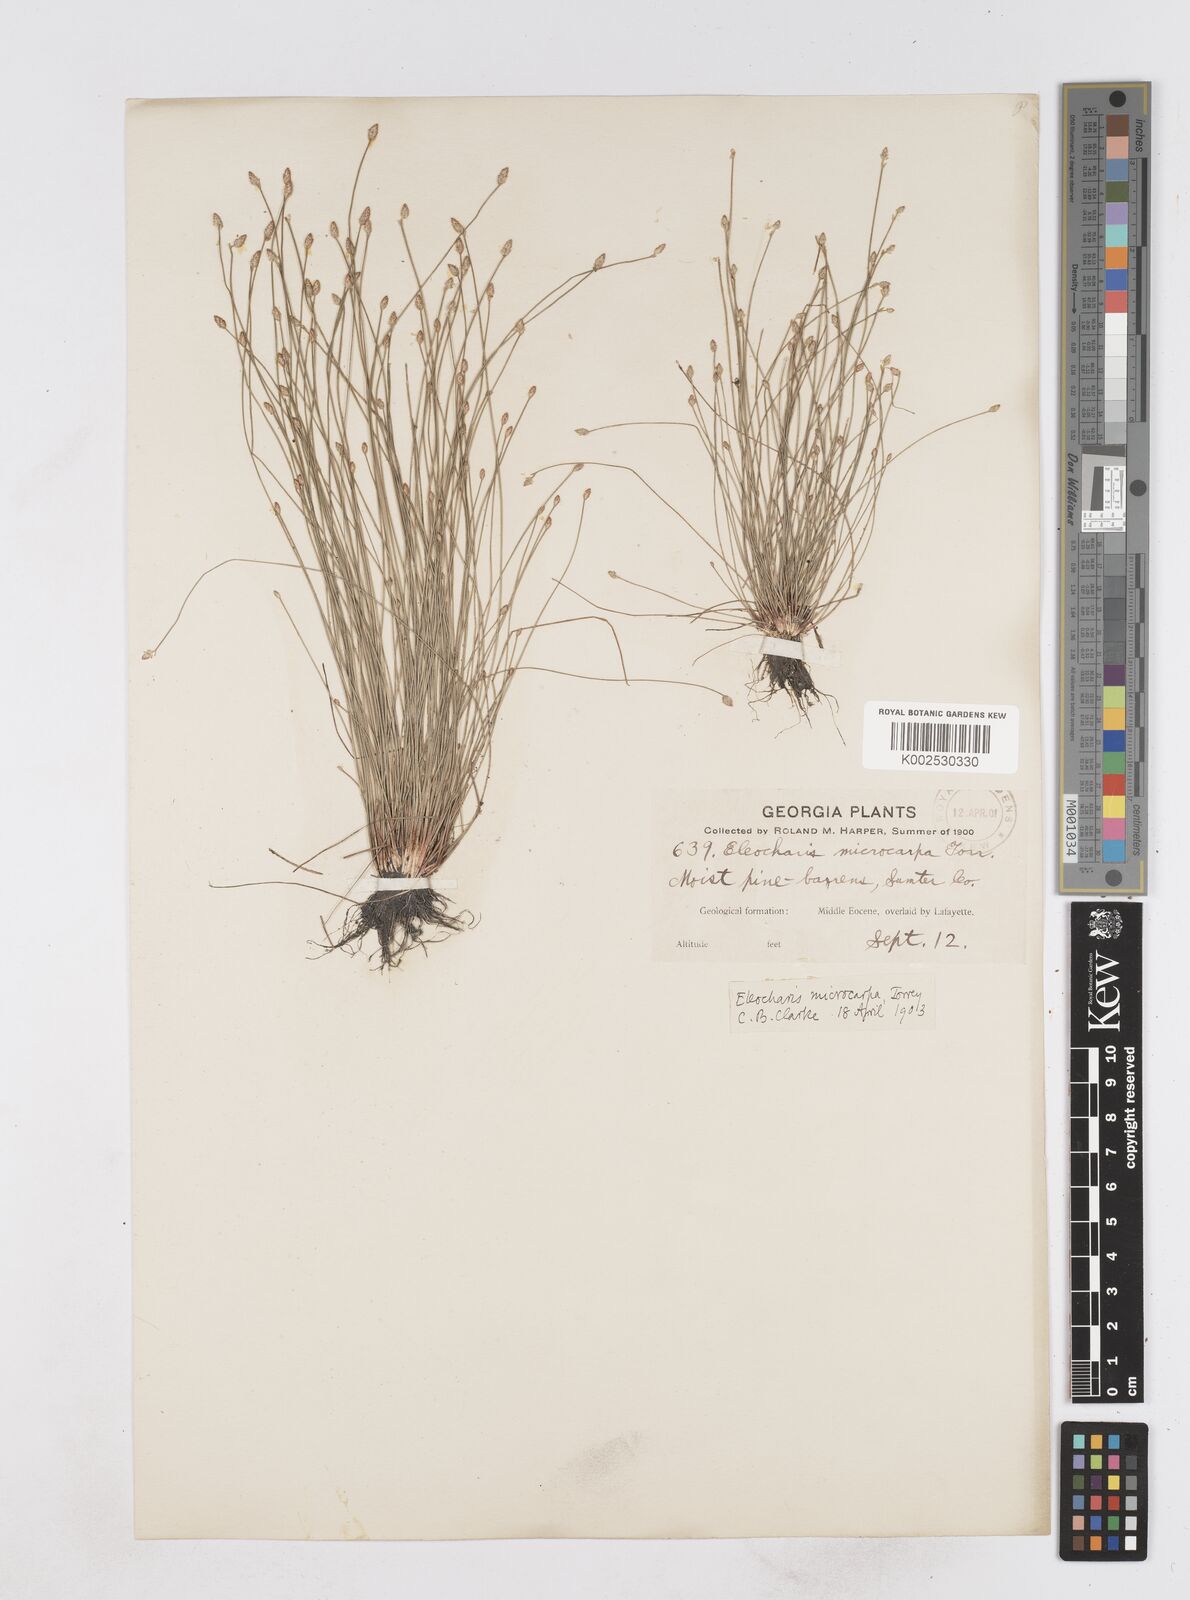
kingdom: Plantae
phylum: Tracheophyta
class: Liliopsida
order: Poales
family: Cyperaceae
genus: Eleocharis
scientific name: Eleocharis microcarpa
